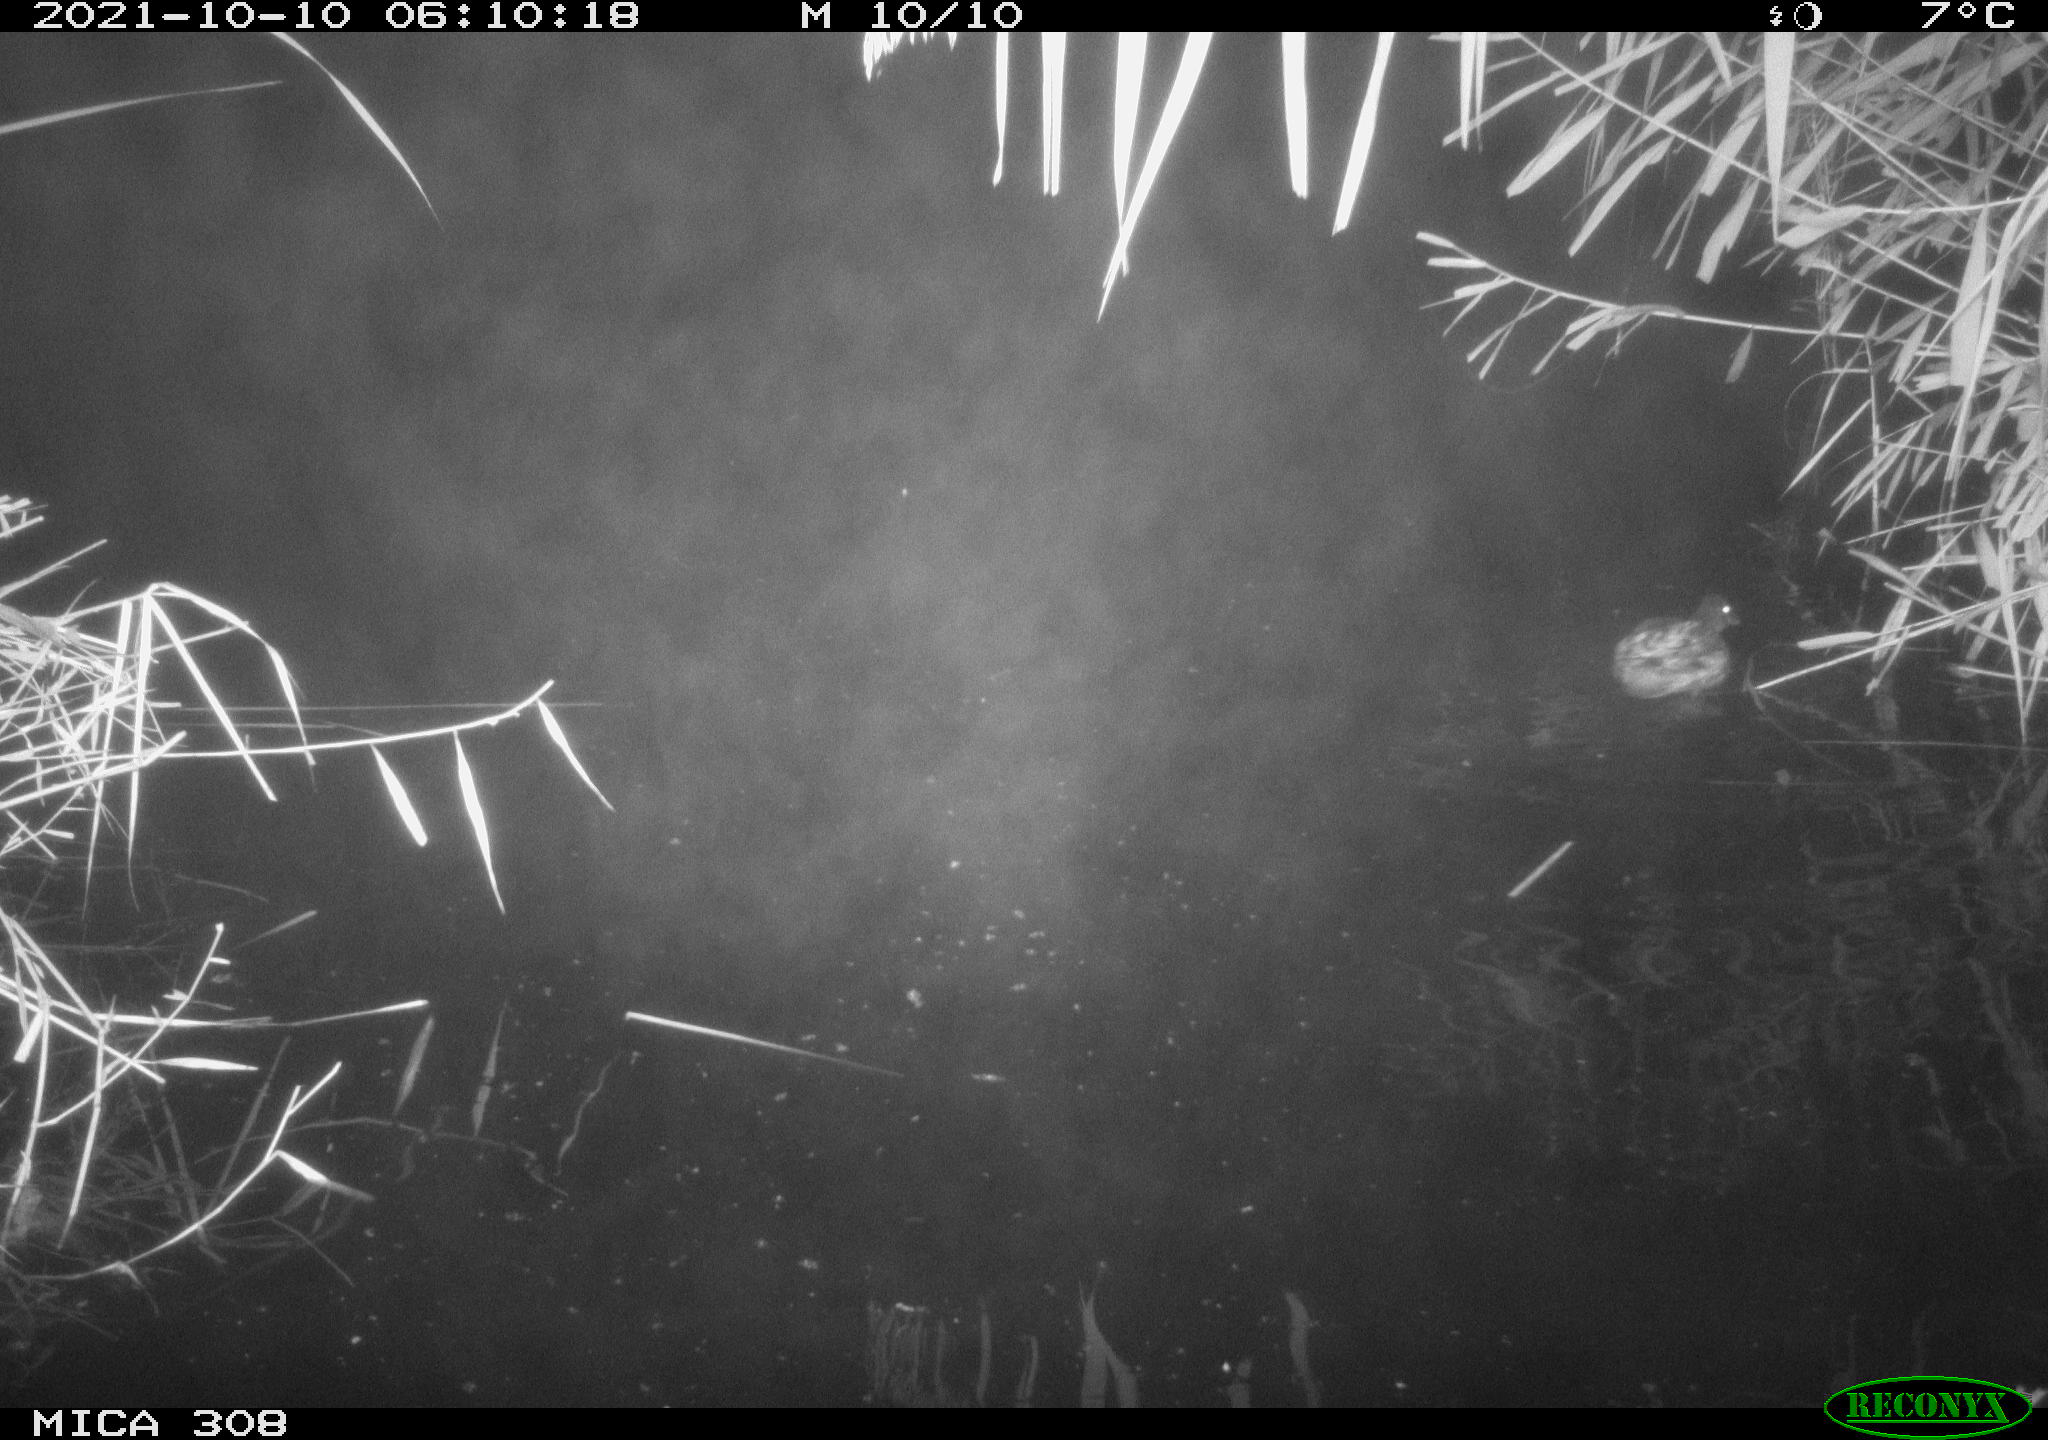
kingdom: Animalia
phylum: Chordata
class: Aves
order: Anseriformes
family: Anatidae
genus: Spatula
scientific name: Spatula clypeata
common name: Northern shoveler
